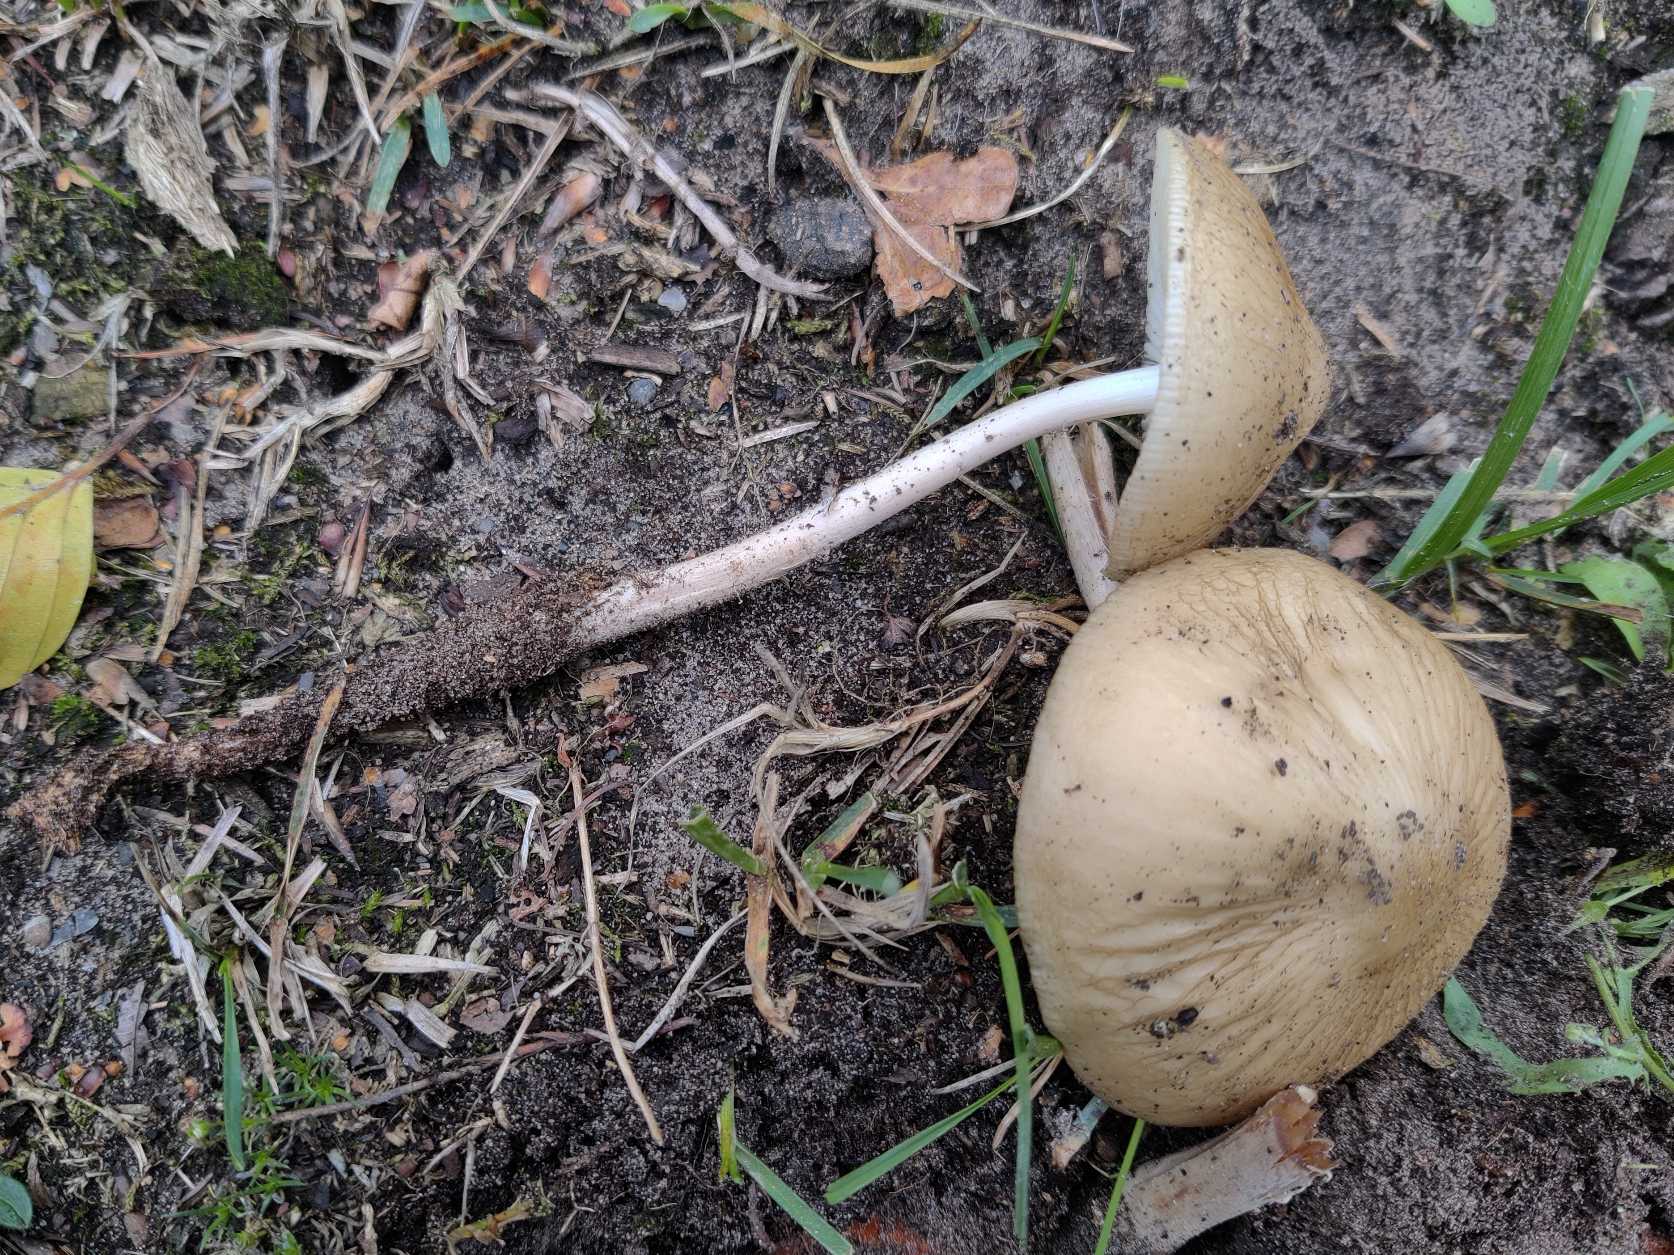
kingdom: Fungi
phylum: Basidiomycota
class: Agaricomycetes
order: Agaricales
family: Physalacriaceae
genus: Hymenopellis
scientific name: Hymenopellis radicata
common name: Almindelig pælerodshat
